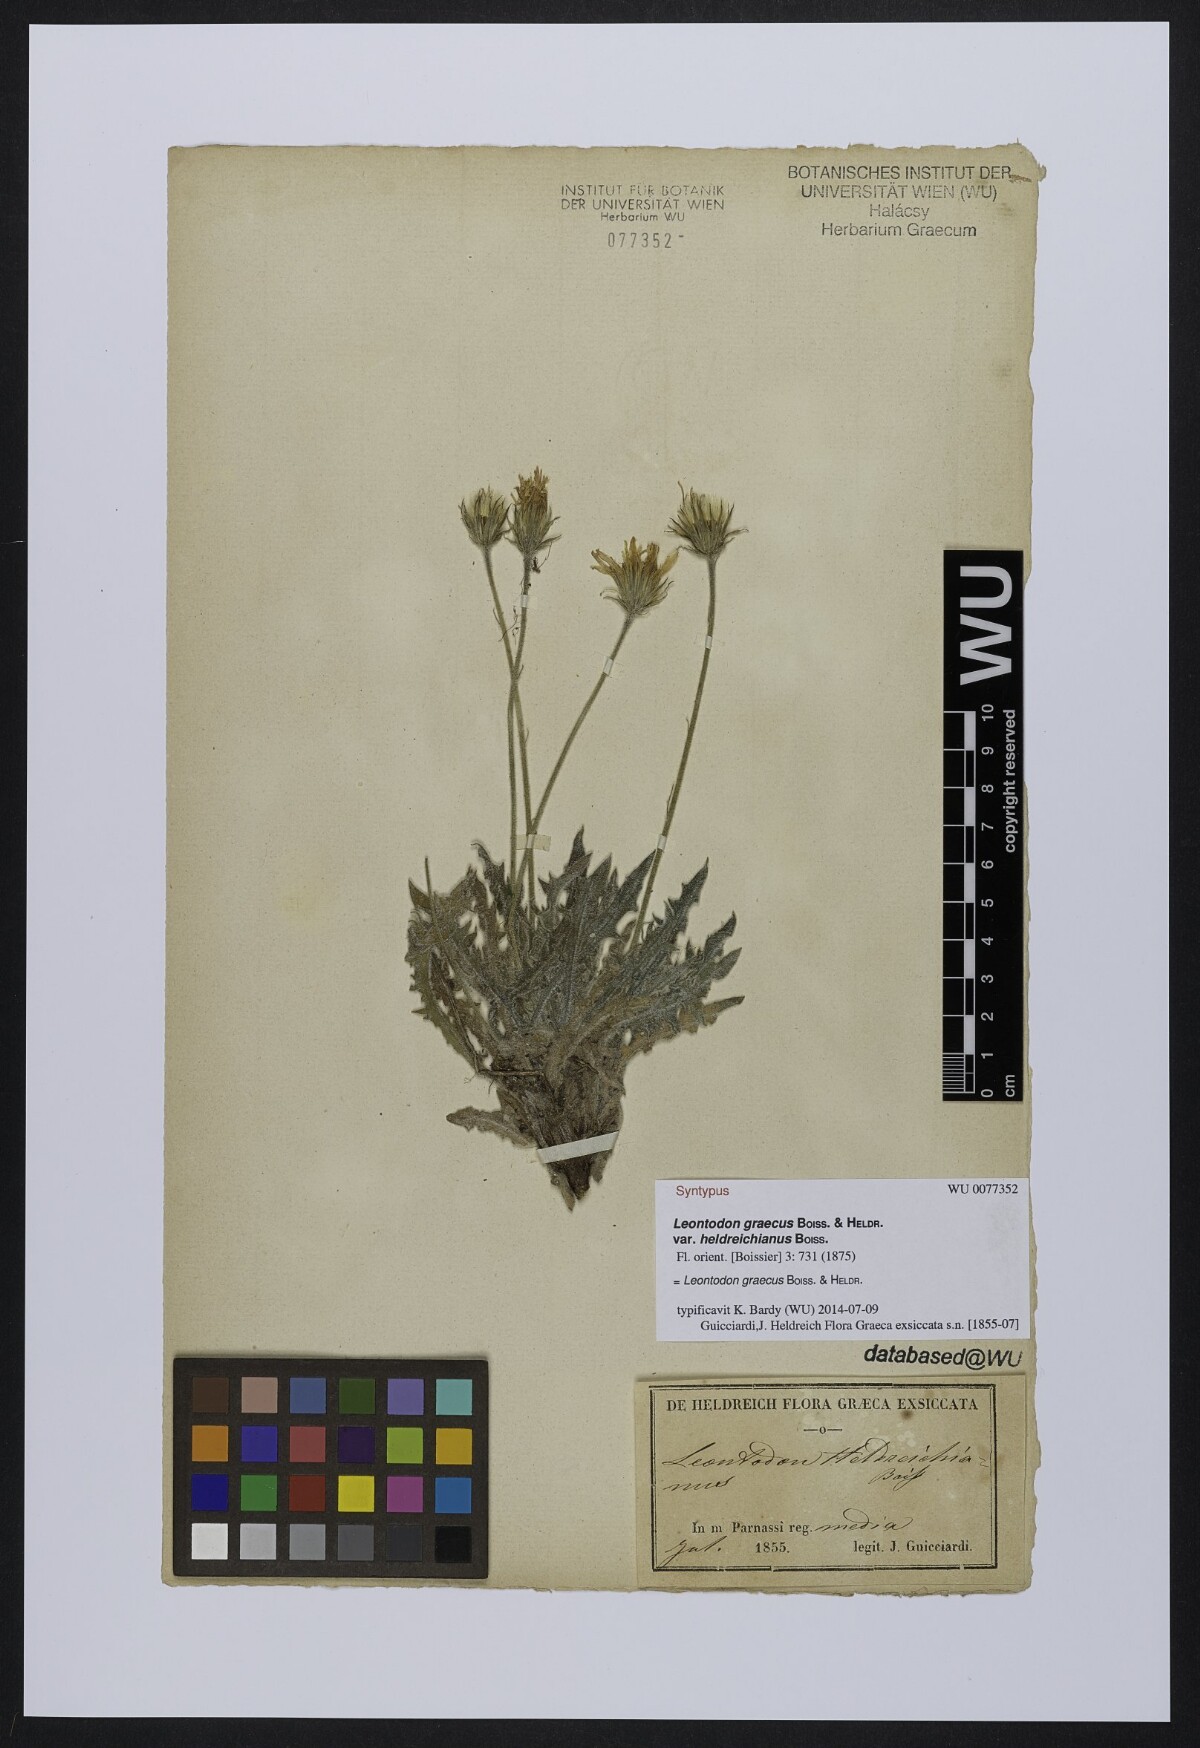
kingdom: Plantae
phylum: Tracheophyta
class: Magnoliopsida
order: Asterales
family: Asteraceae
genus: Leontodon
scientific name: Leontodon graecus
